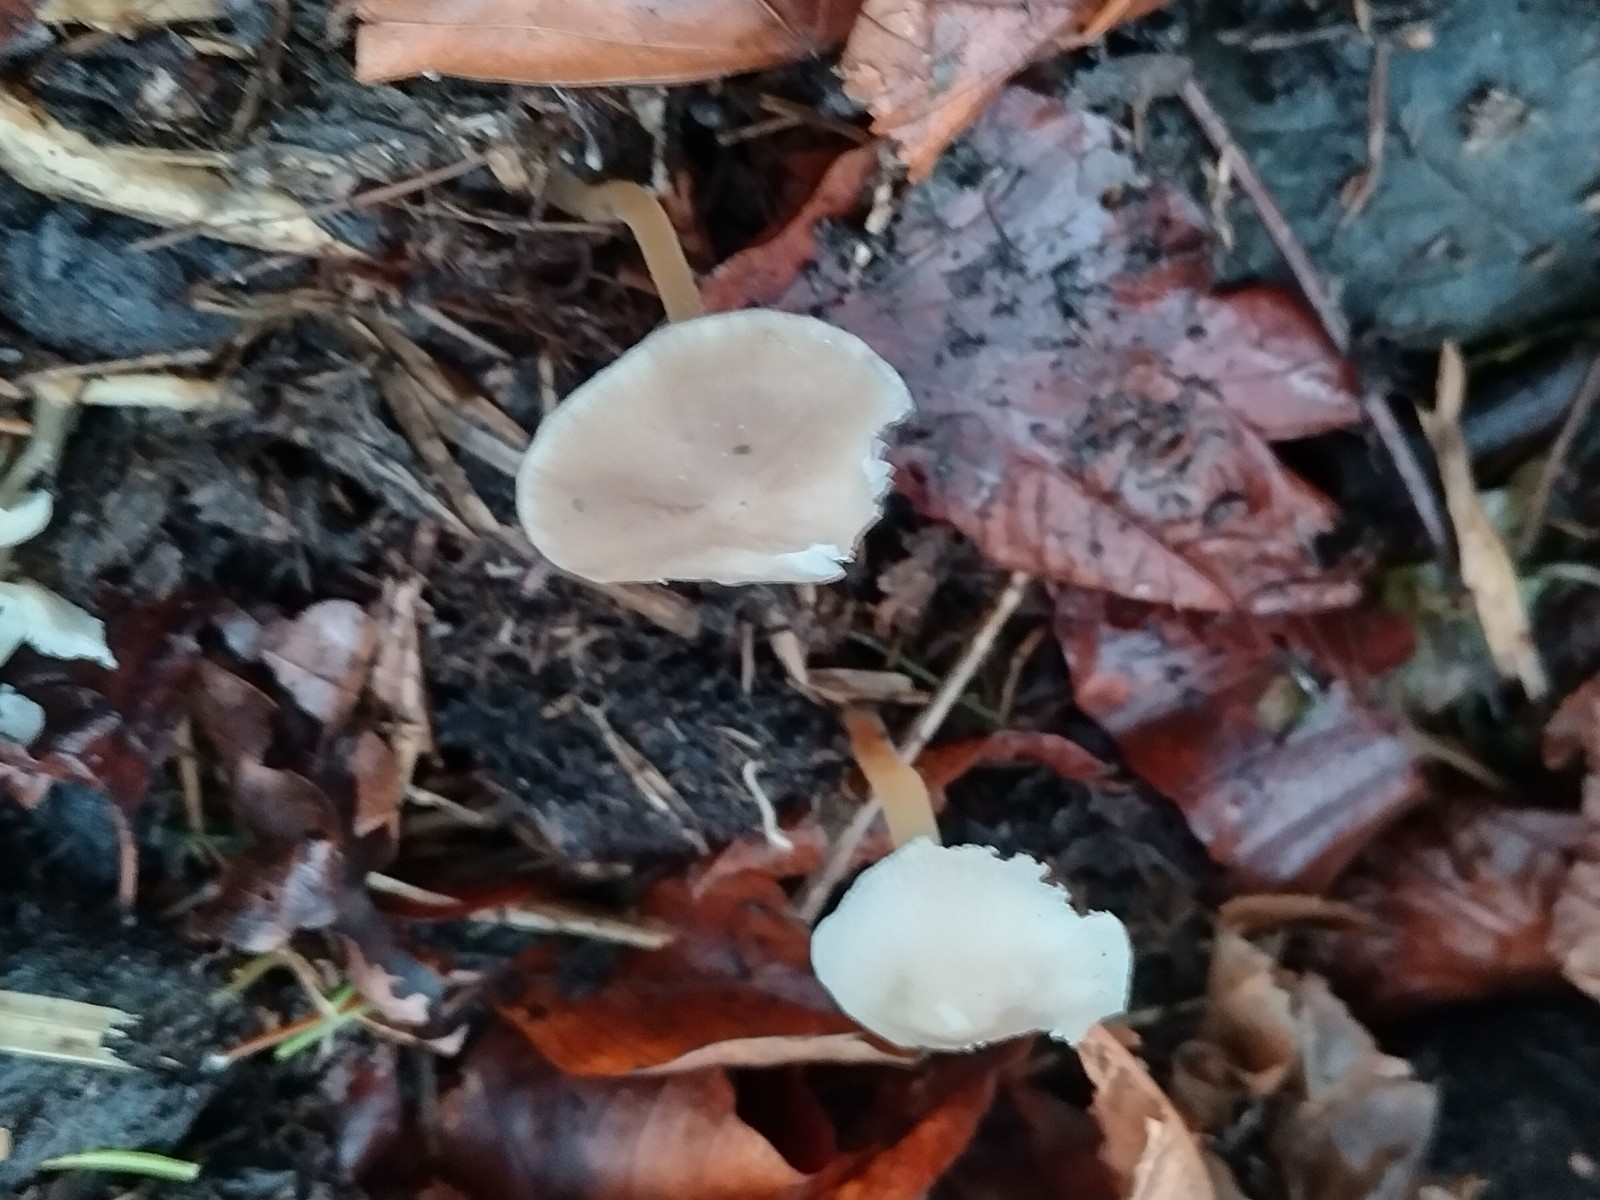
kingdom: Fungi
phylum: Basidiomycota
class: Agaricomycetes
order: Agaricales
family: Physalacriaceae
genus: Strobilurus
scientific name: Strobilurus esculentus
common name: gran-koglehat
